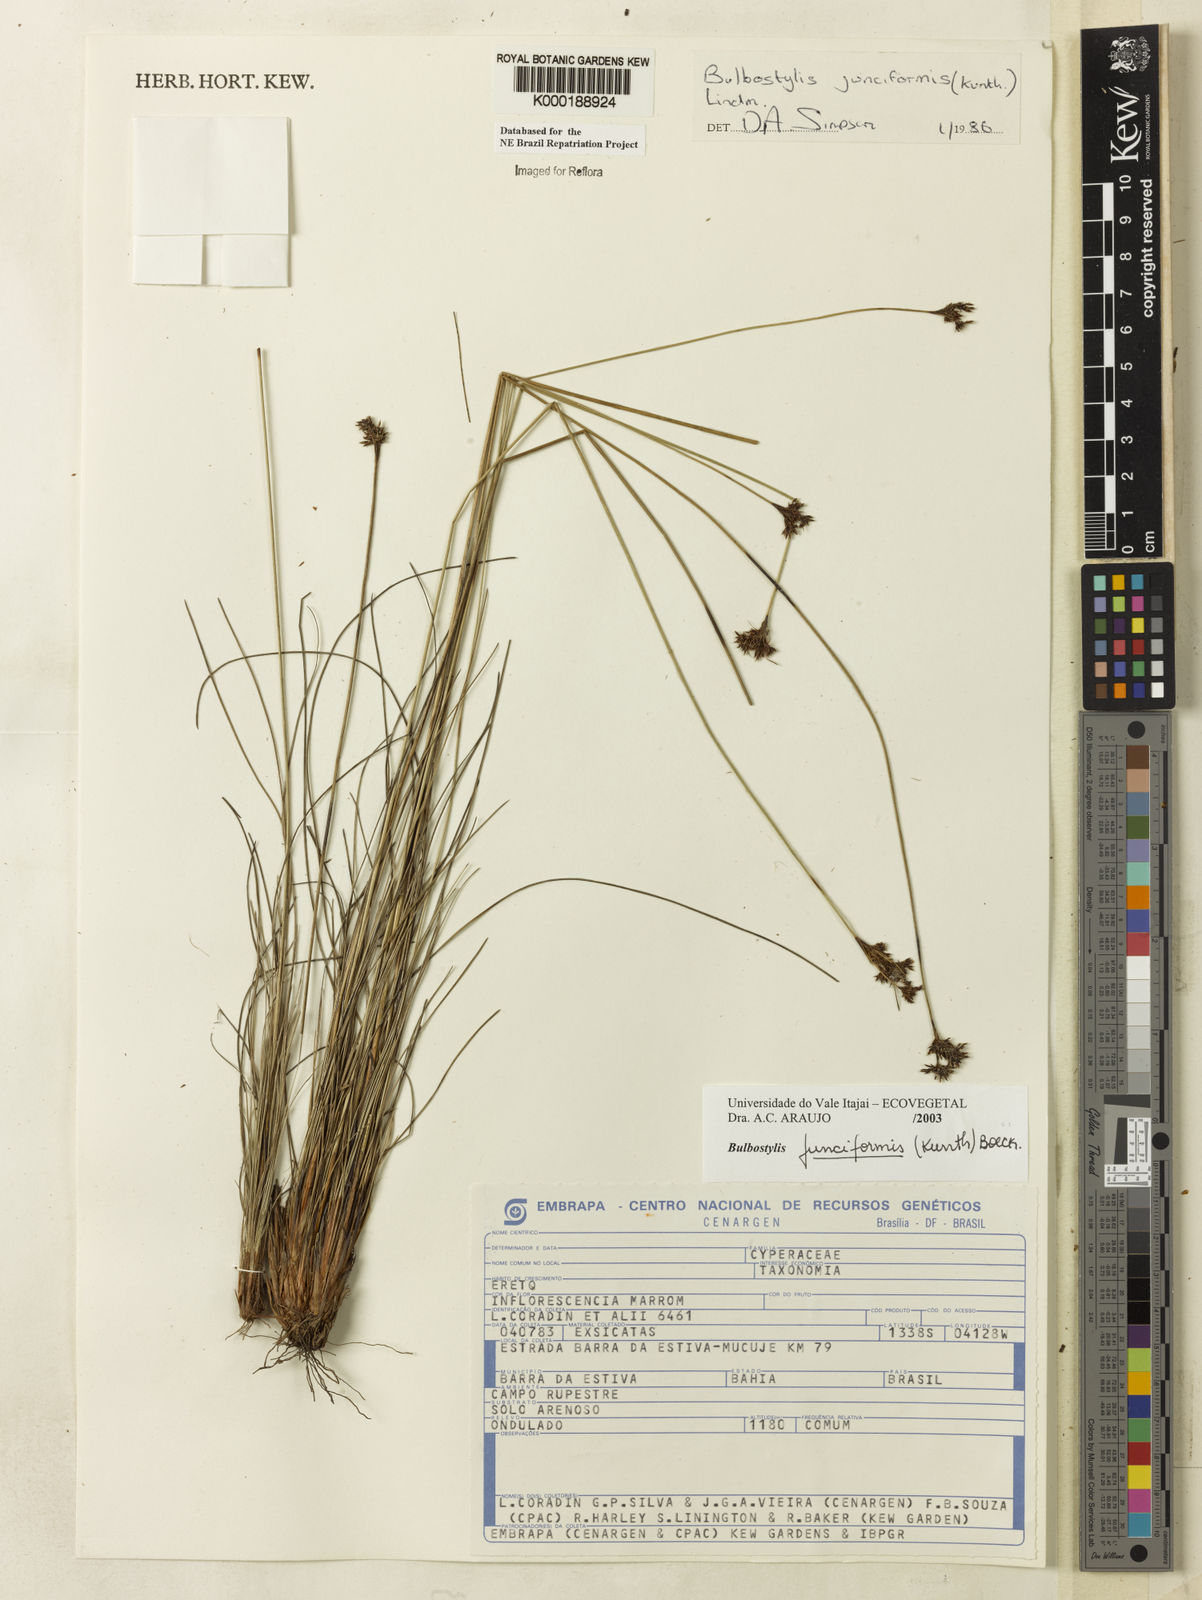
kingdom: Plantae
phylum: Tracheophyta
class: Liliopsida
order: Poales
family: Cyperaceae
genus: Bulbostylis
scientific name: Bulbostylis
